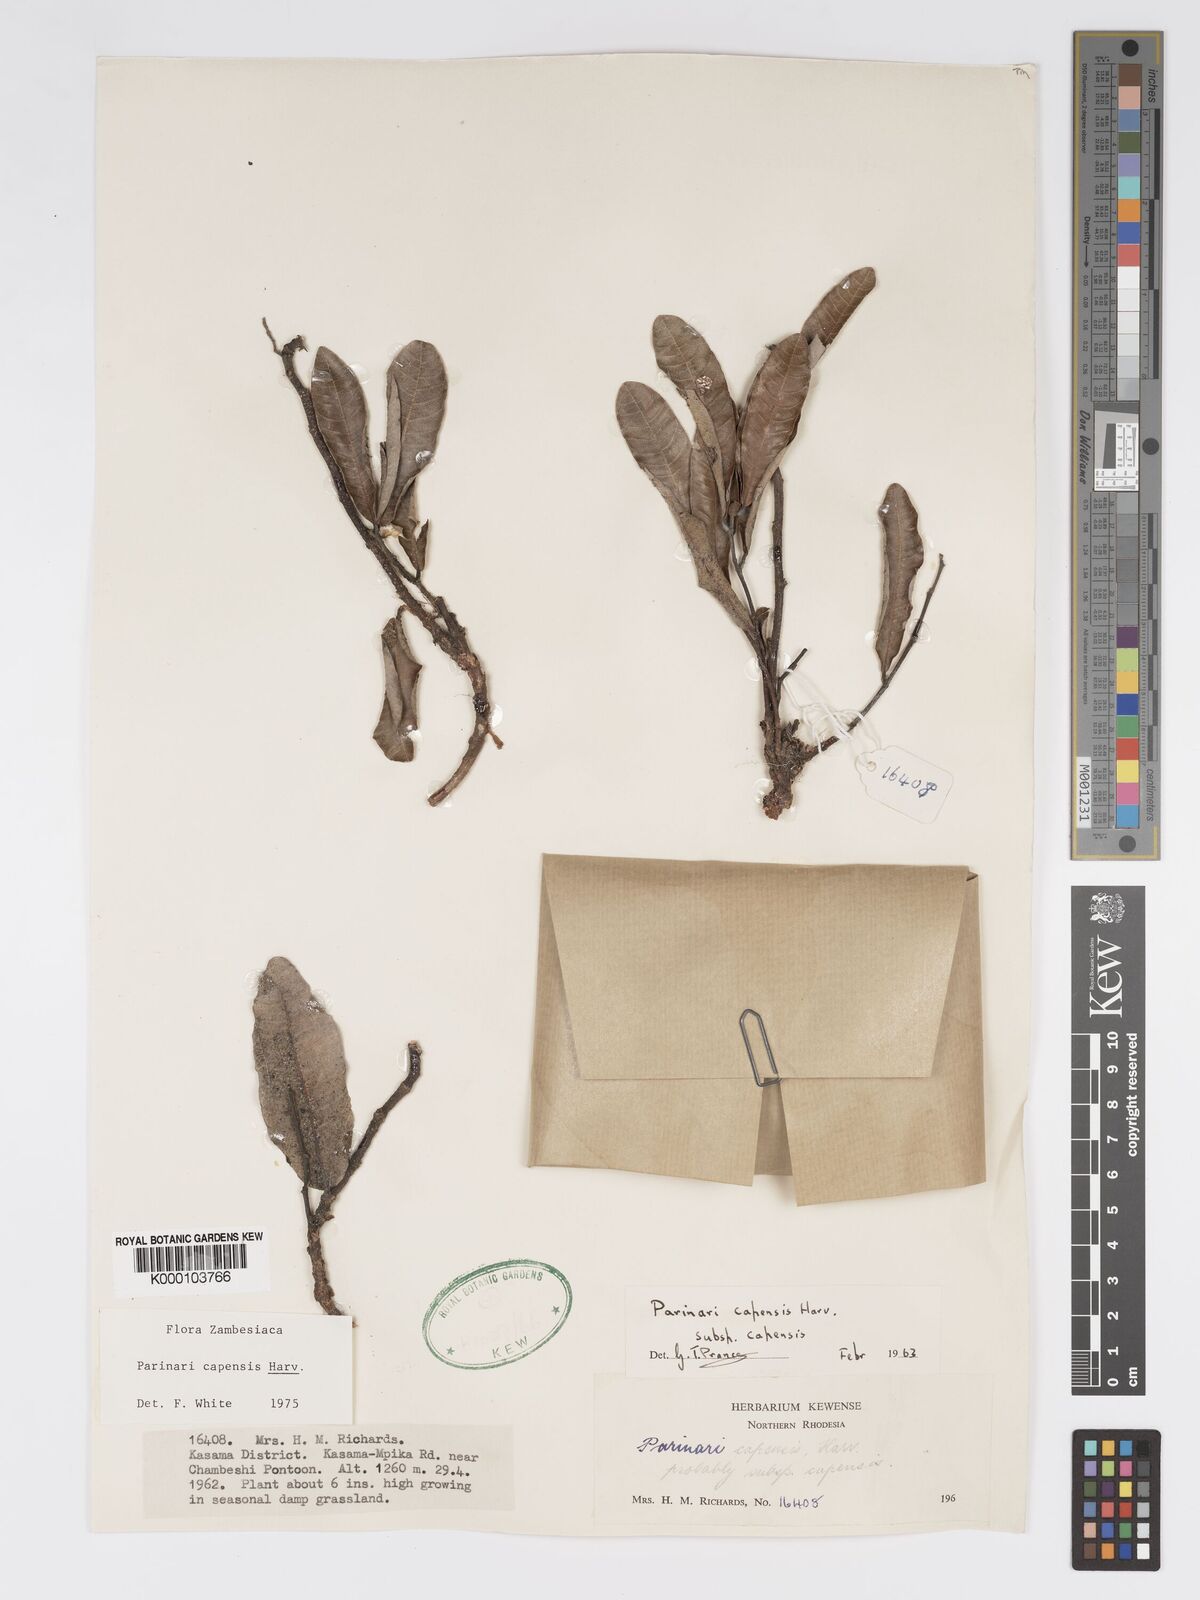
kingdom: Plantae
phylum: Tracheophyta
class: Magnoliopsida
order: Malpighiales
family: Chrysobalanaceae
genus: Parinari
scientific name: Parinari capensis
